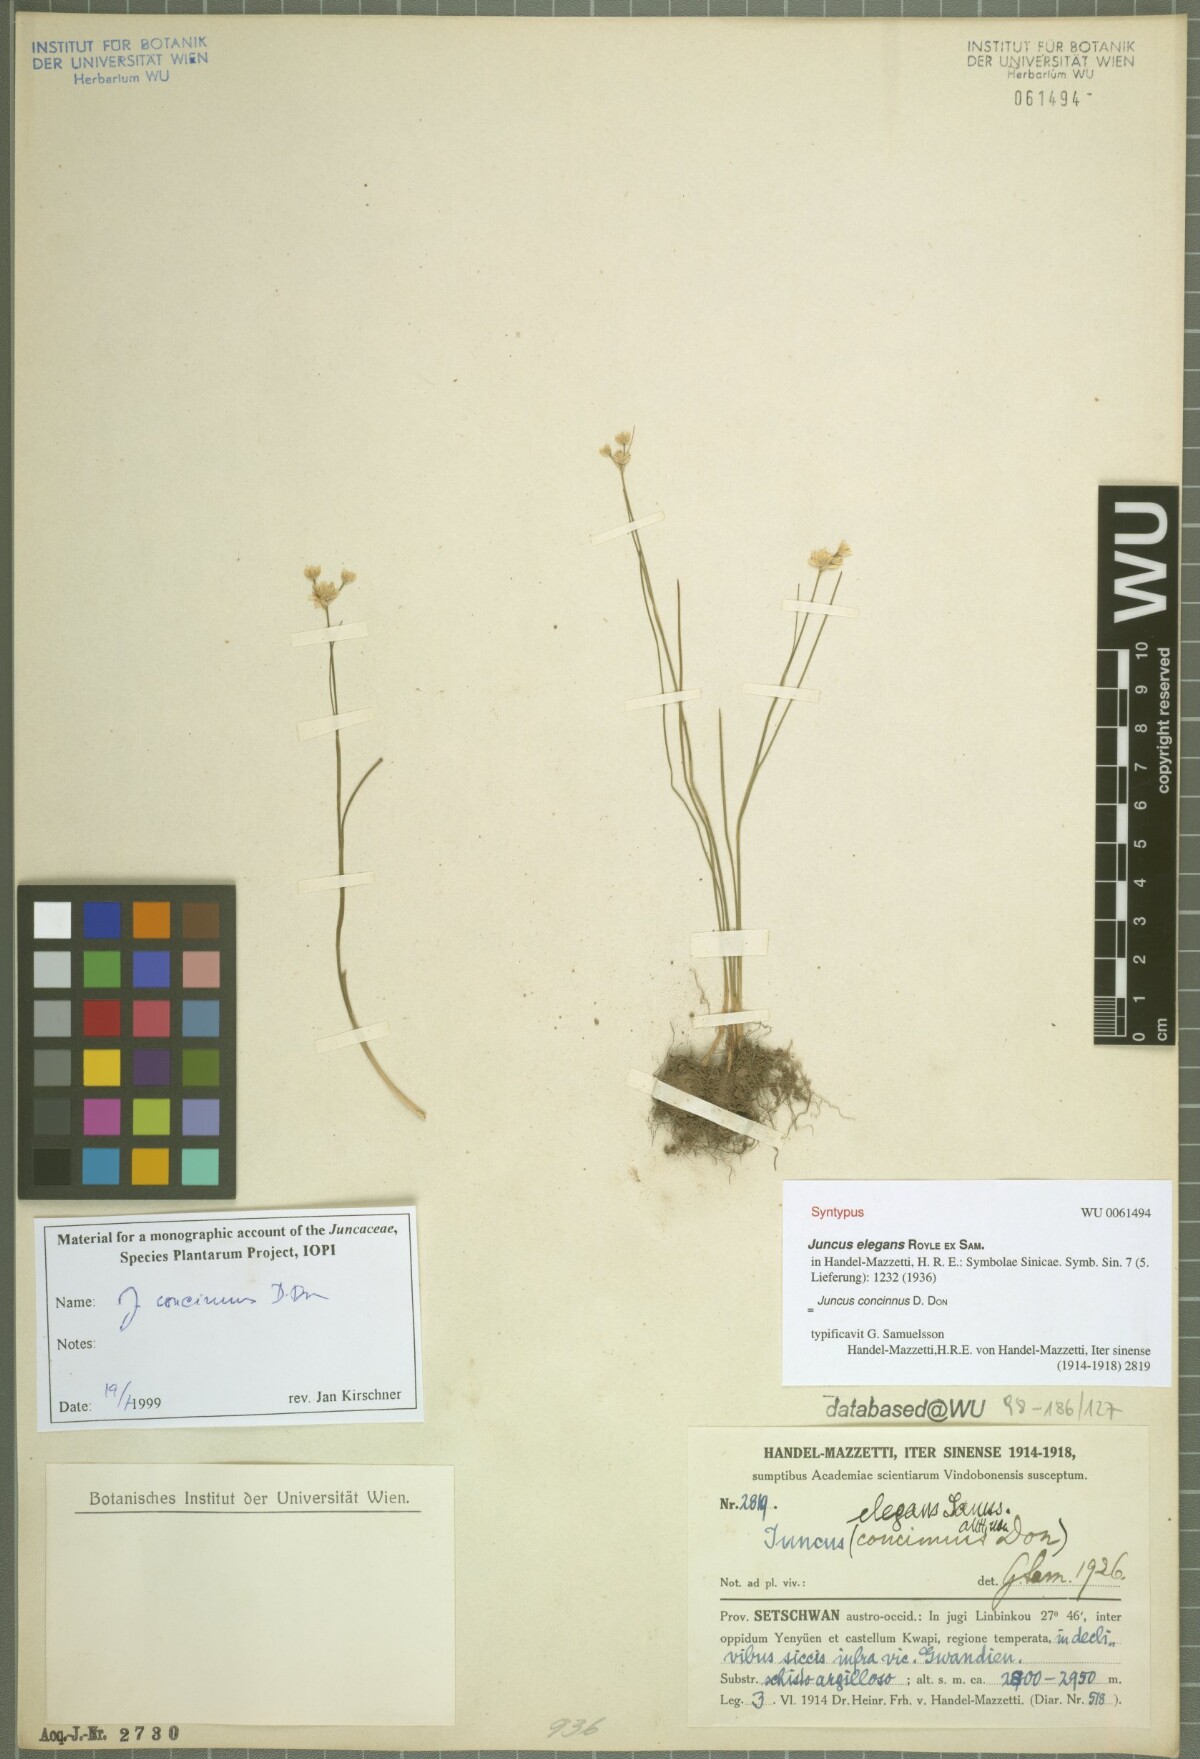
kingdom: Plantae
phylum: Tracheophyta
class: Liliopsida
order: Poales
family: Juncaceae
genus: Juncus
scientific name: Juncus concinnus
